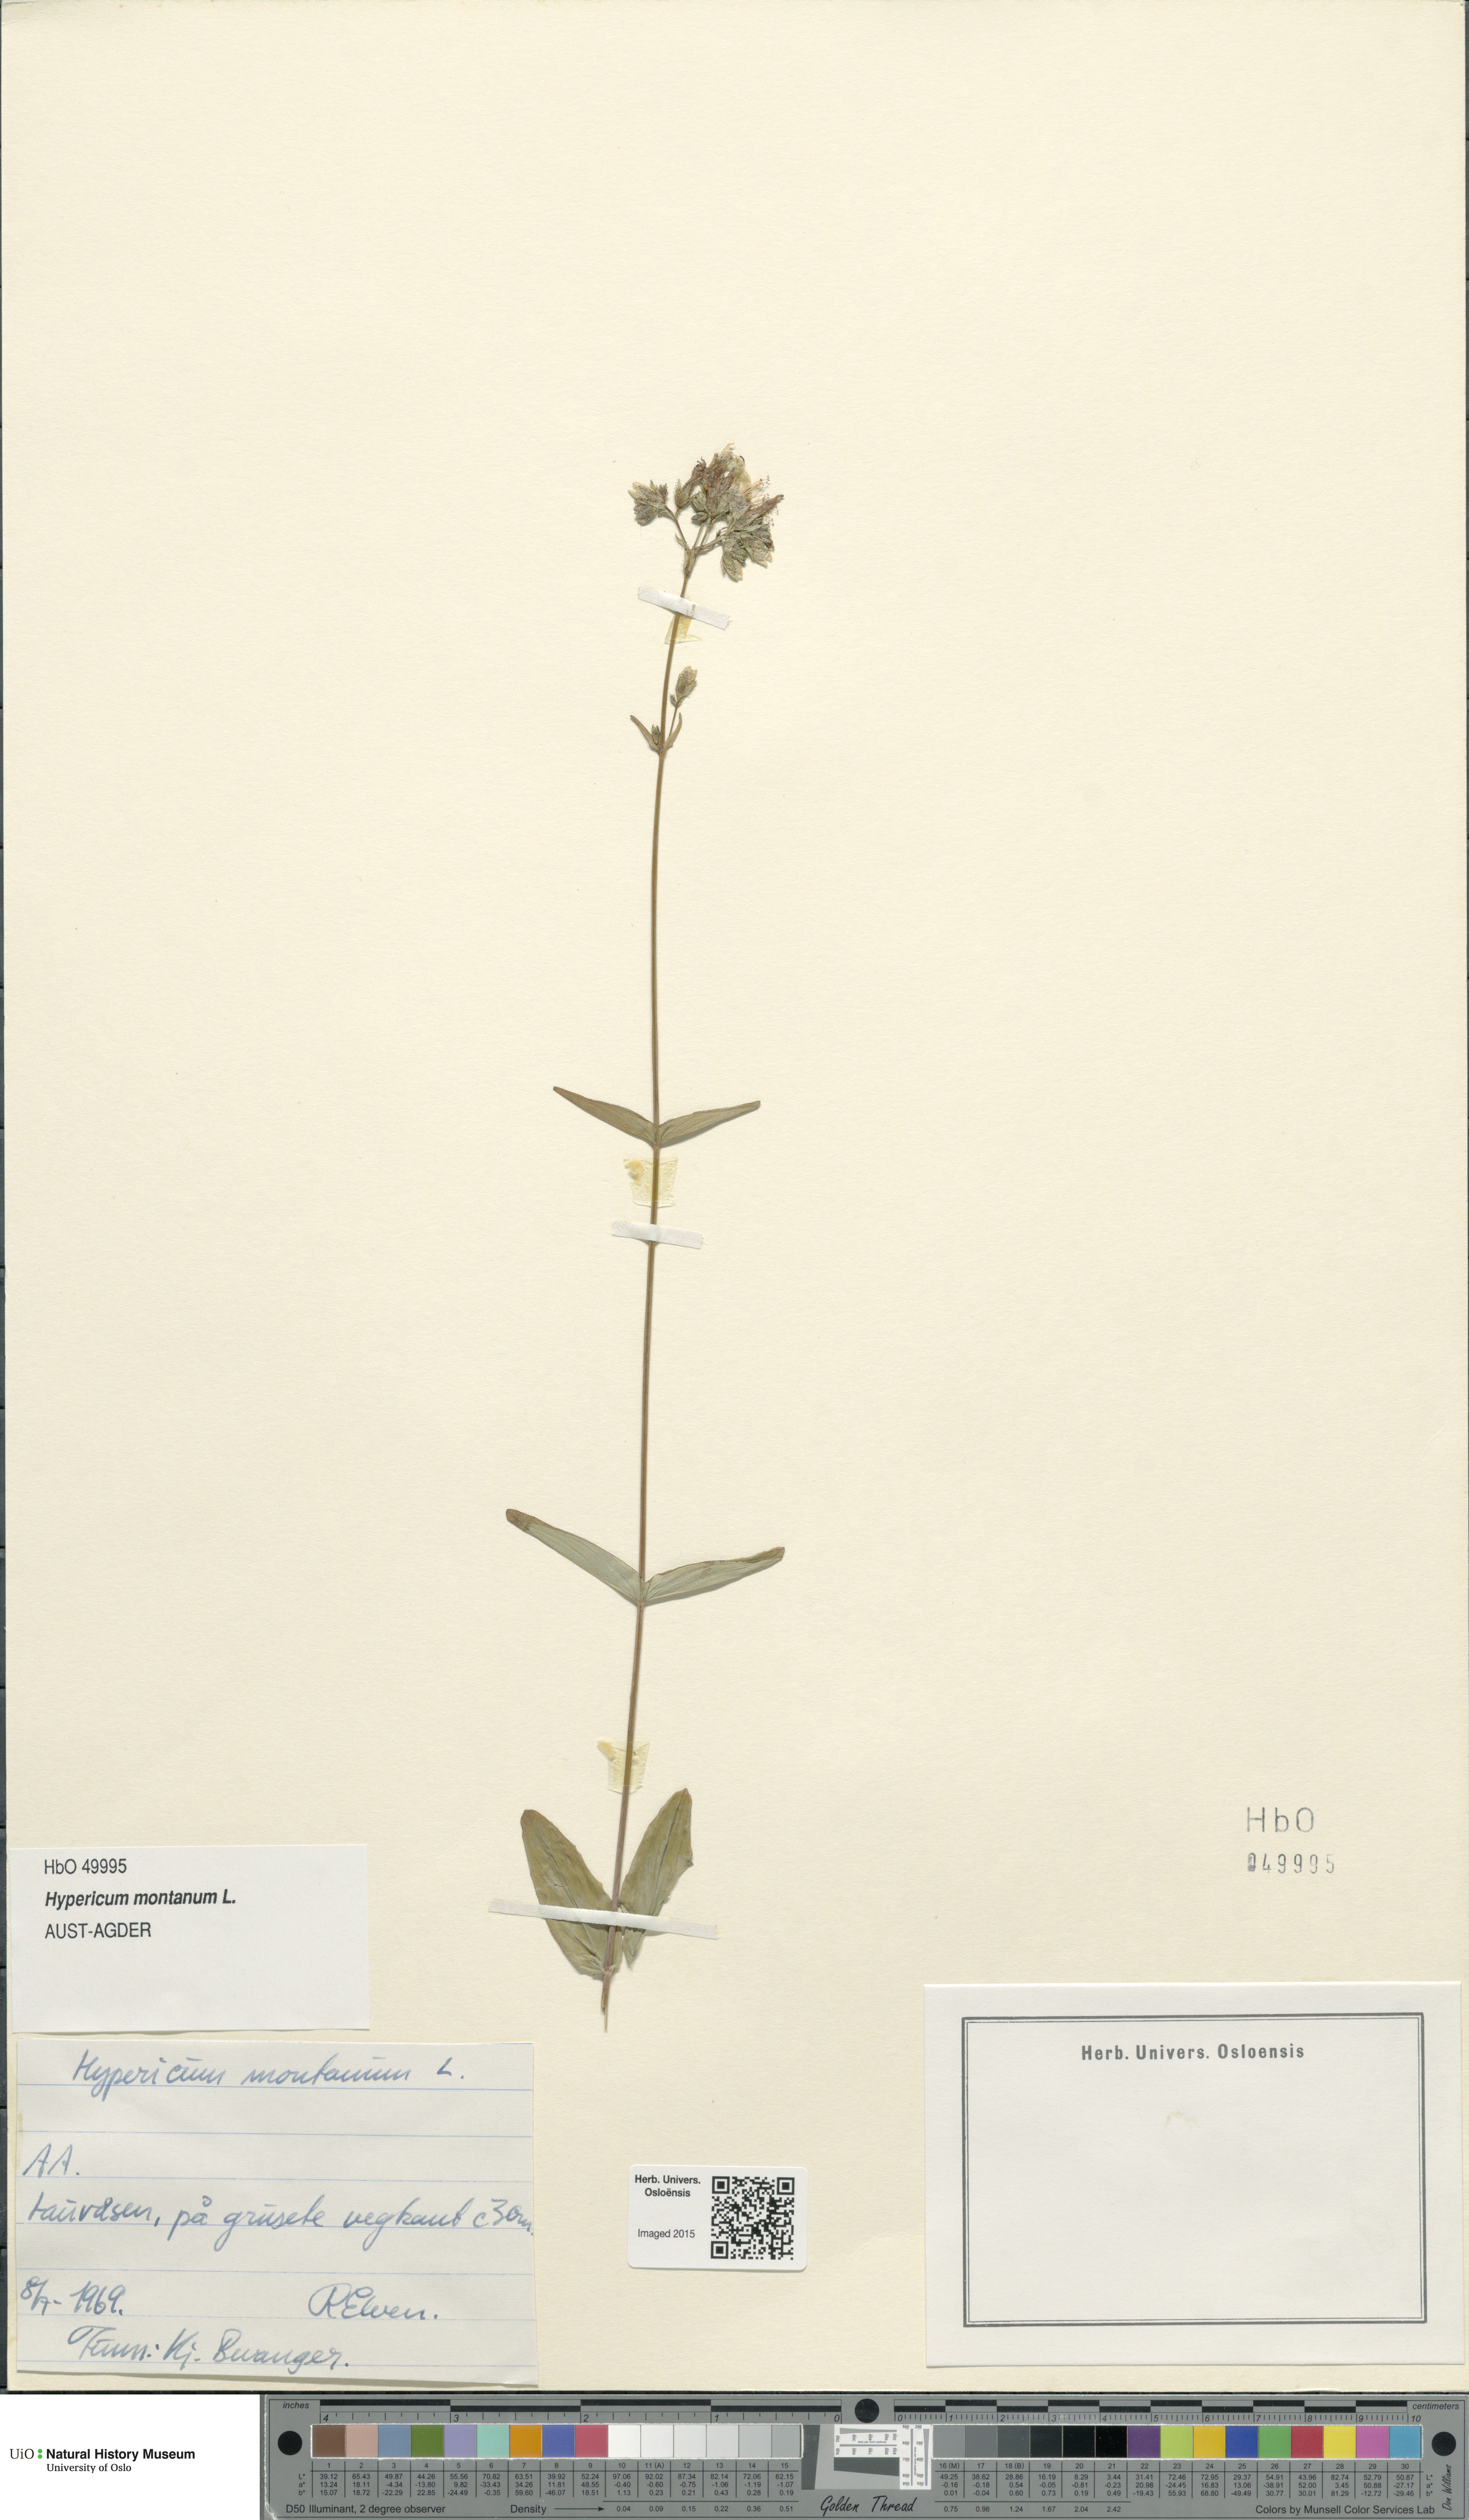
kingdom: Plantae
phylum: Tracheophyta
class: Magnoliopsida
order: Malpighiales
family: Hypericaceae
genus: Hypericum
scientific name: Hypericum montanum
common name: Pale st. john's-wort
